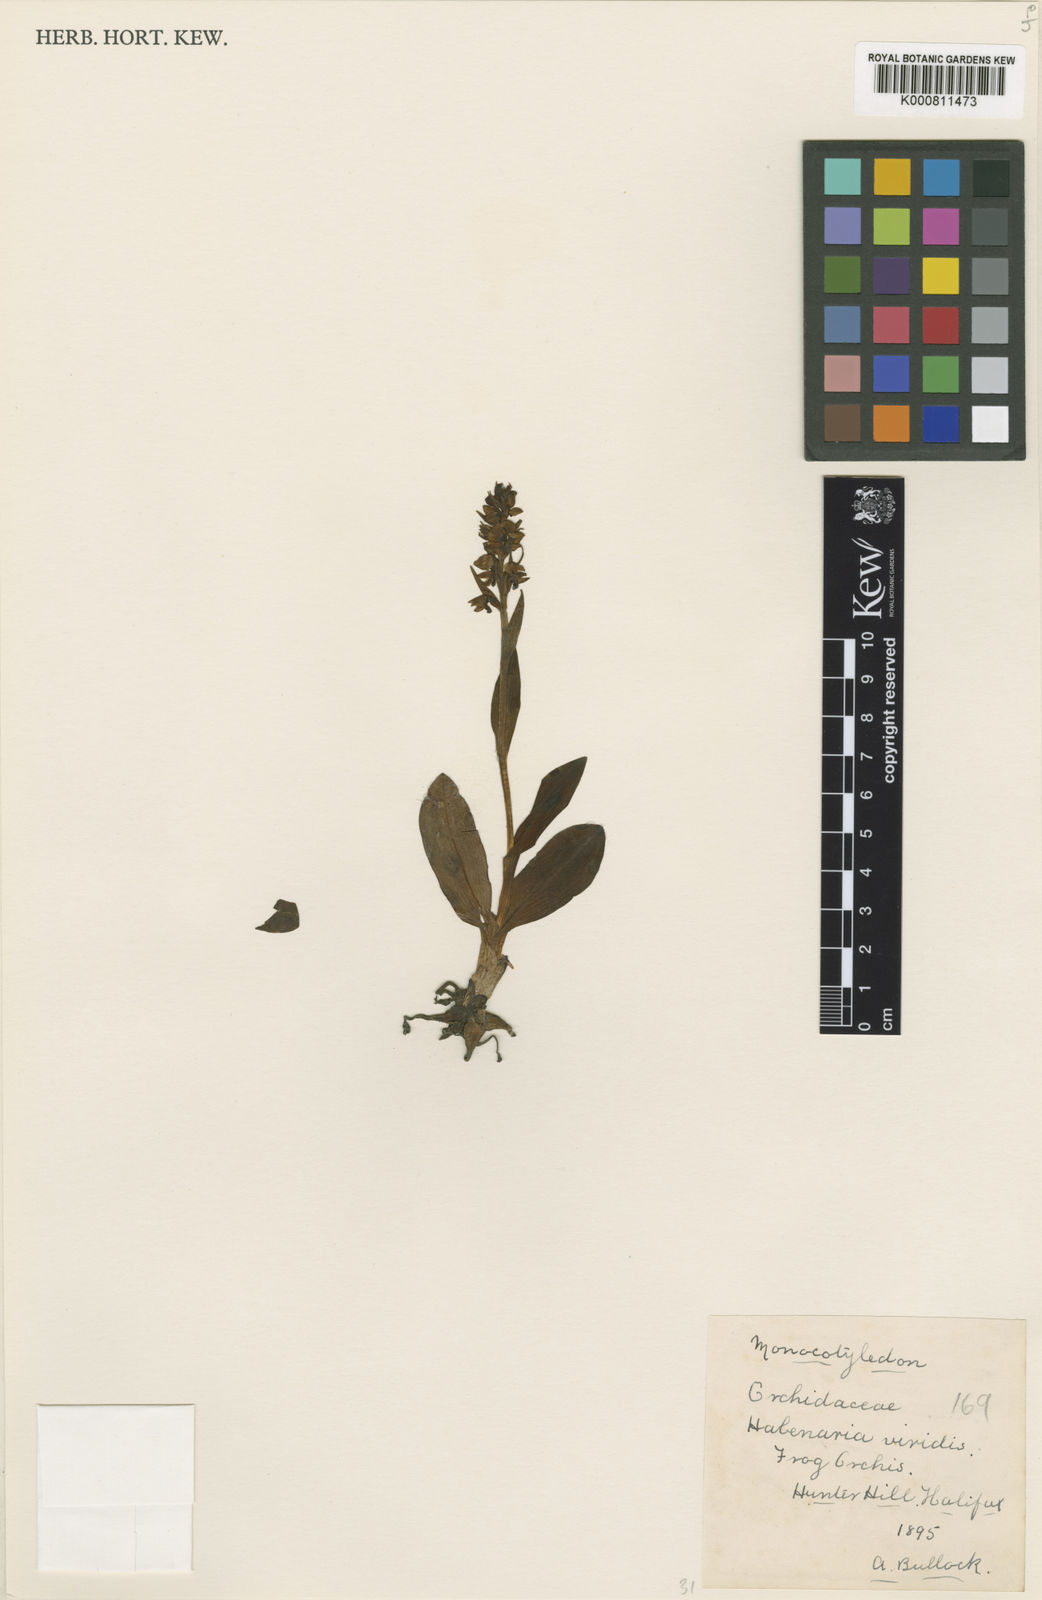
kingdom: Plantae
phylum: Tracheophyta
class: Liliopsida
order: Asparagales
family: Orchidaceae
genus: Dactylorhiza
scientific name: Dactylorhiza viridis
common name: Longbract frog orchid
